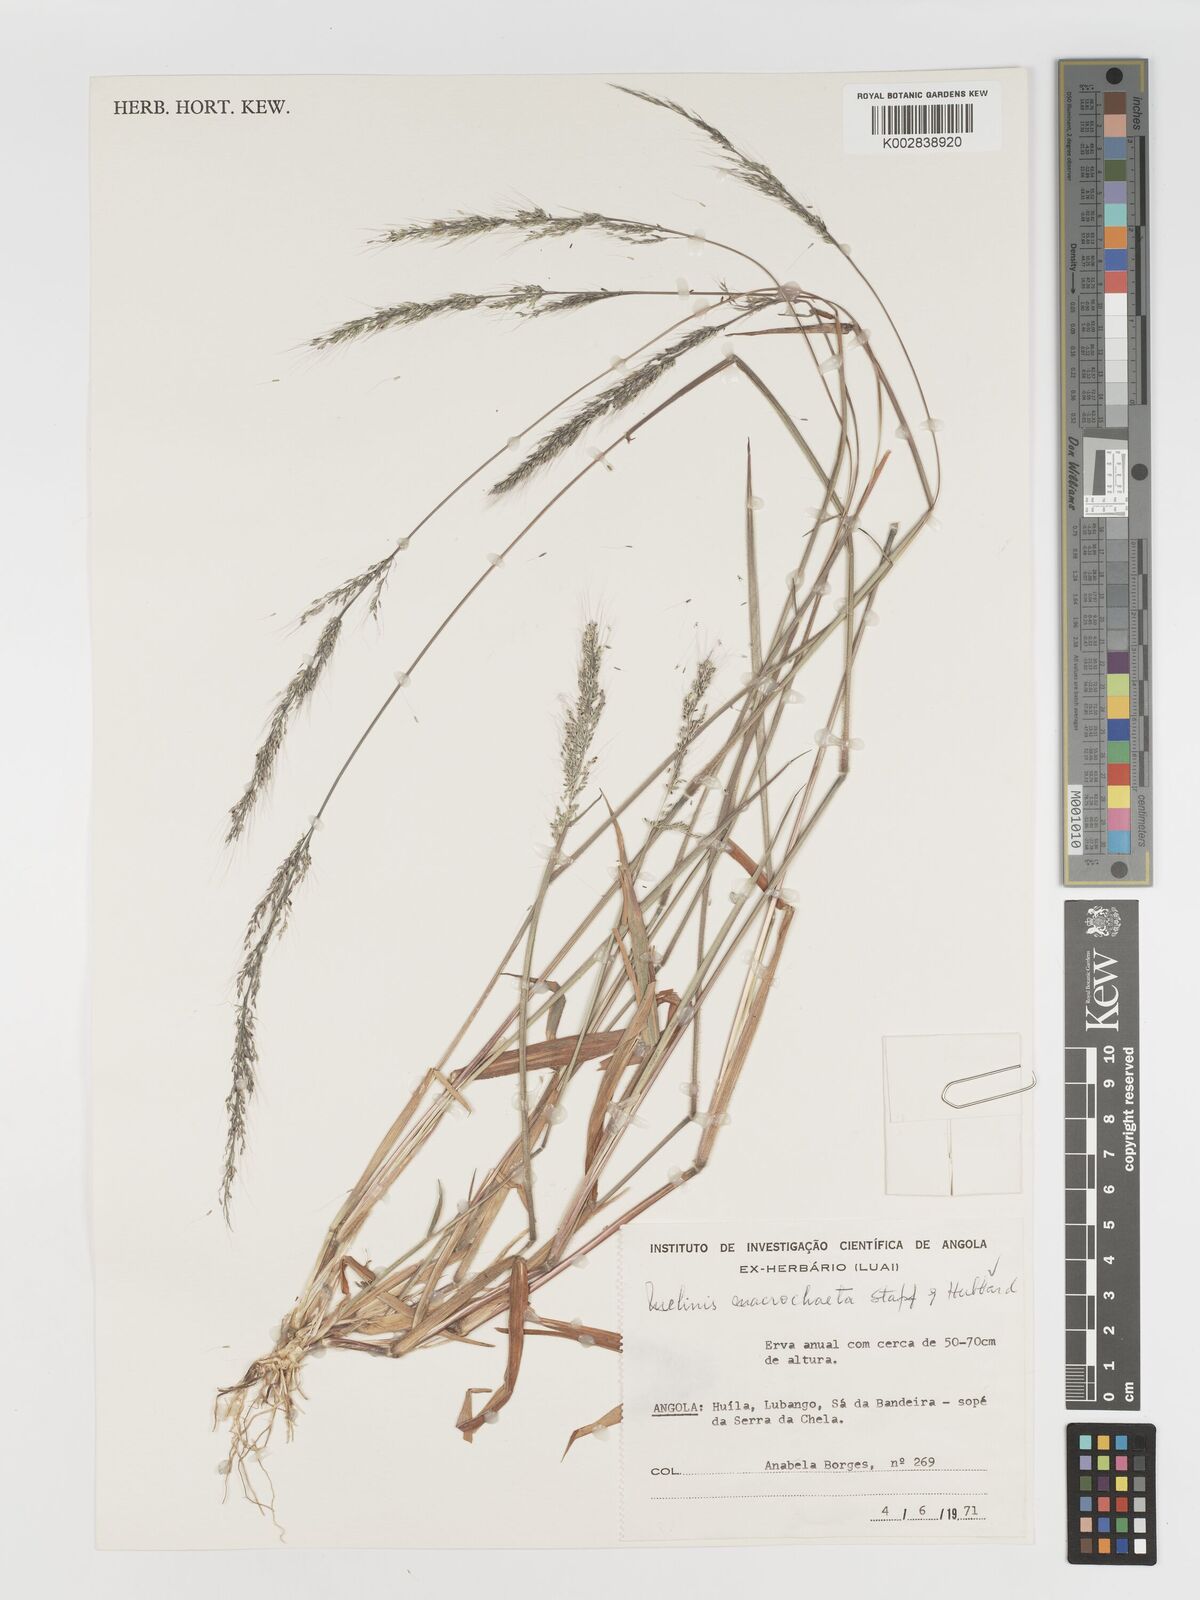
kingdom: Plantae
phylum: Tracheophyta
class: Liliopsida
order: Poales
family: Poaceae
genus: Melinis
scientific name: Melinis macrochaeta
